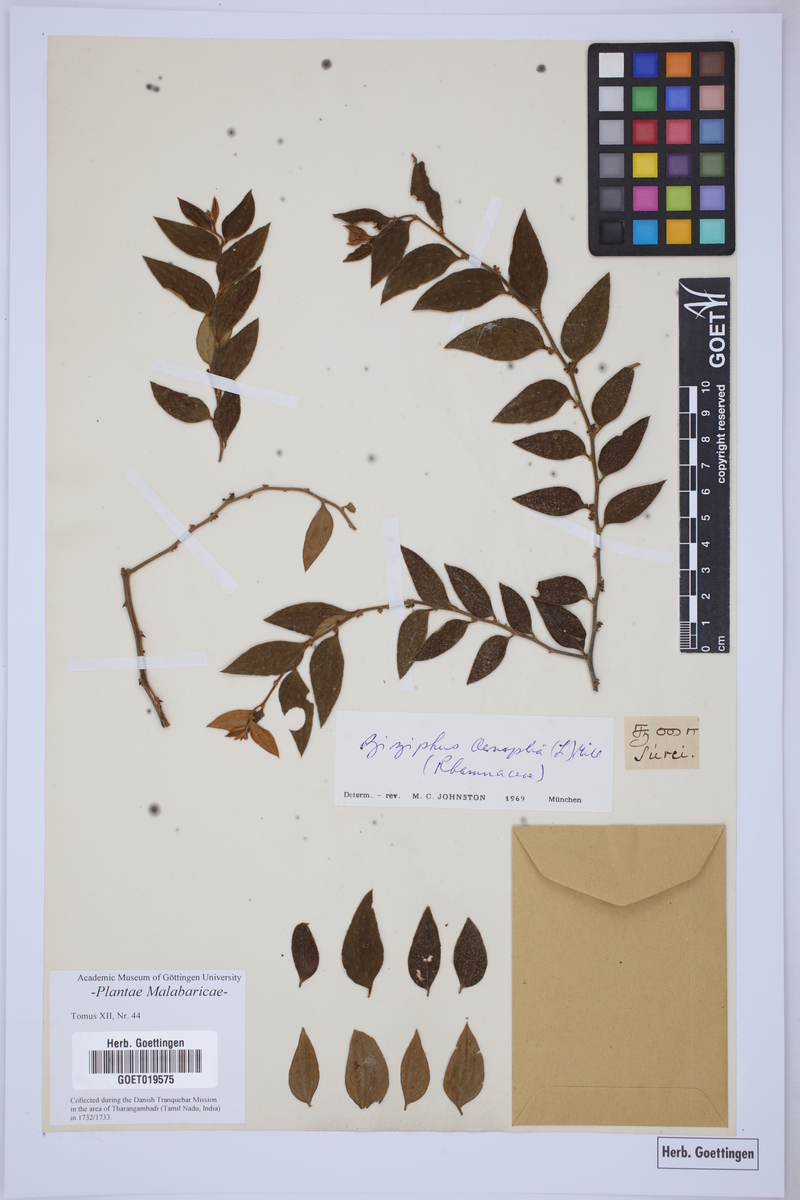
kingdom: Plantae
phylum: Tracheophyta
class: Magnoliopsida
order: Rosales
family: Rhamnaceae
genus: Ziziphus
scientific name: Ziziphus oenopolia
